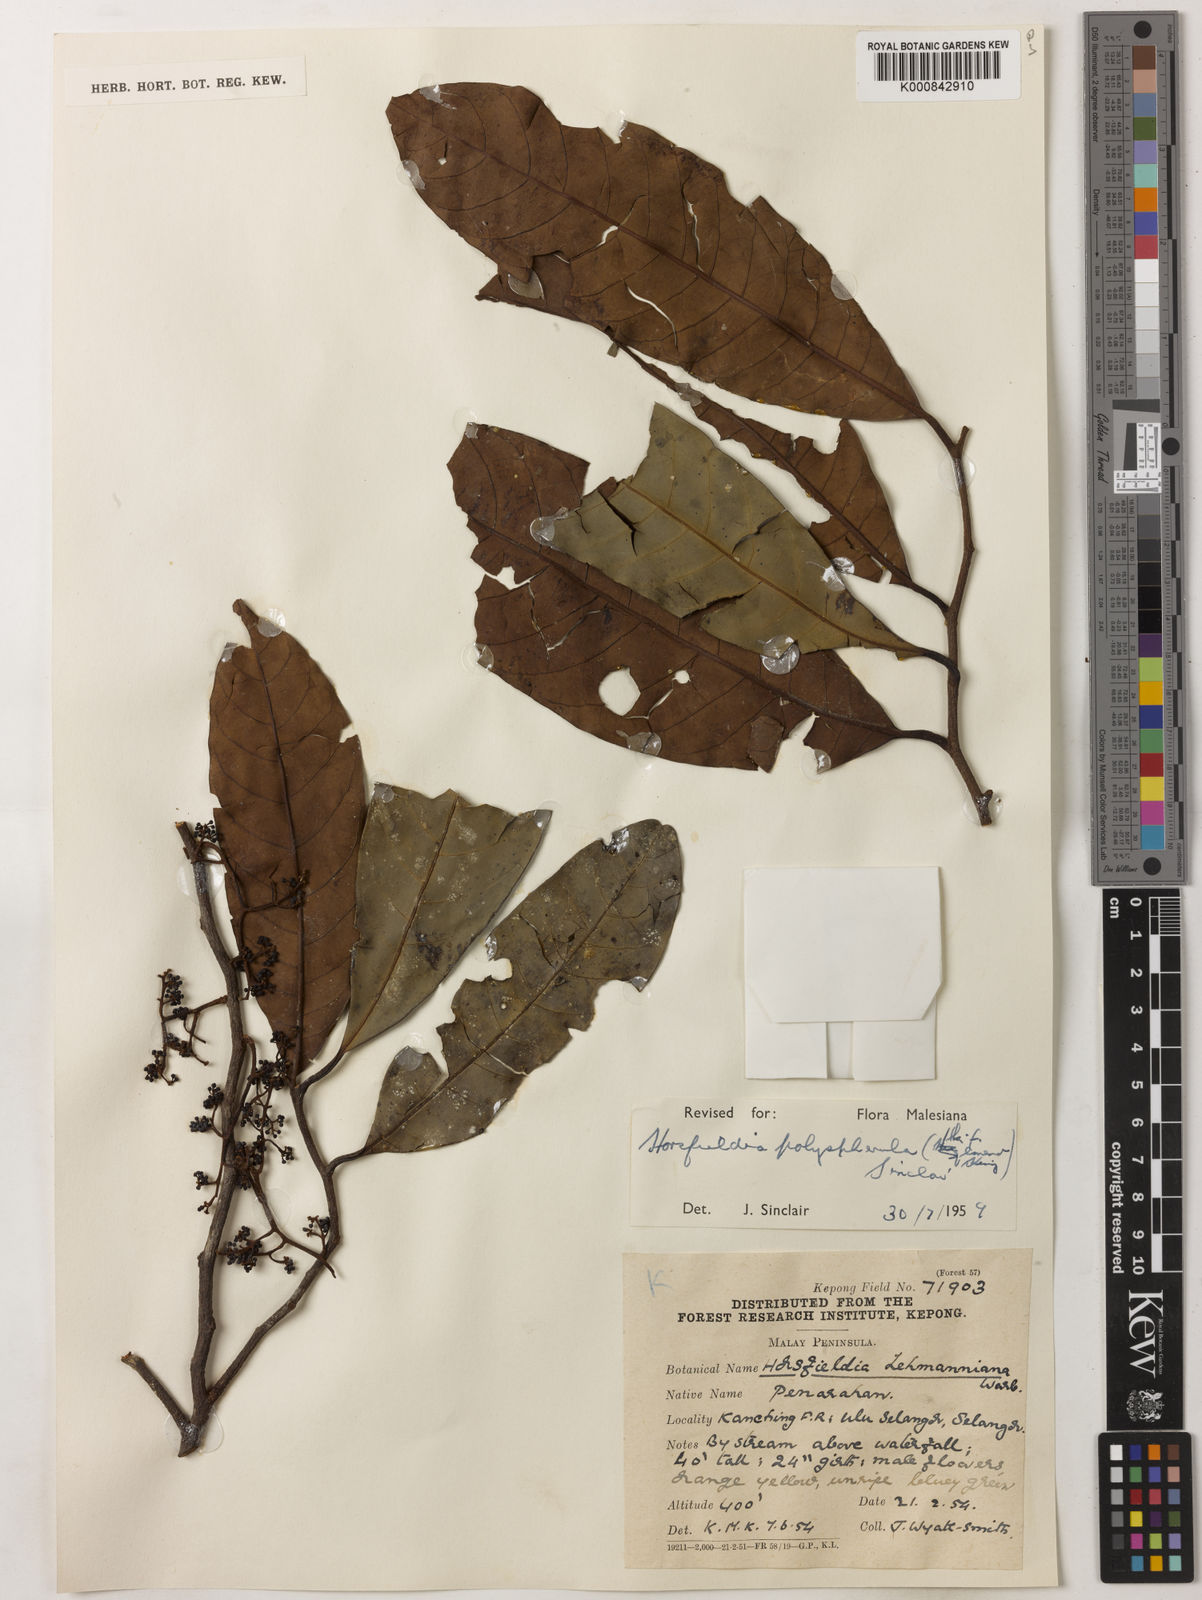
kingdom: Plantae
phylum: Tracheophyta
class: Magnoliopsida
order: Magnoliales
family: Myristicaceae
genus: Horsfieldia
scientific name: Horsfieldia
